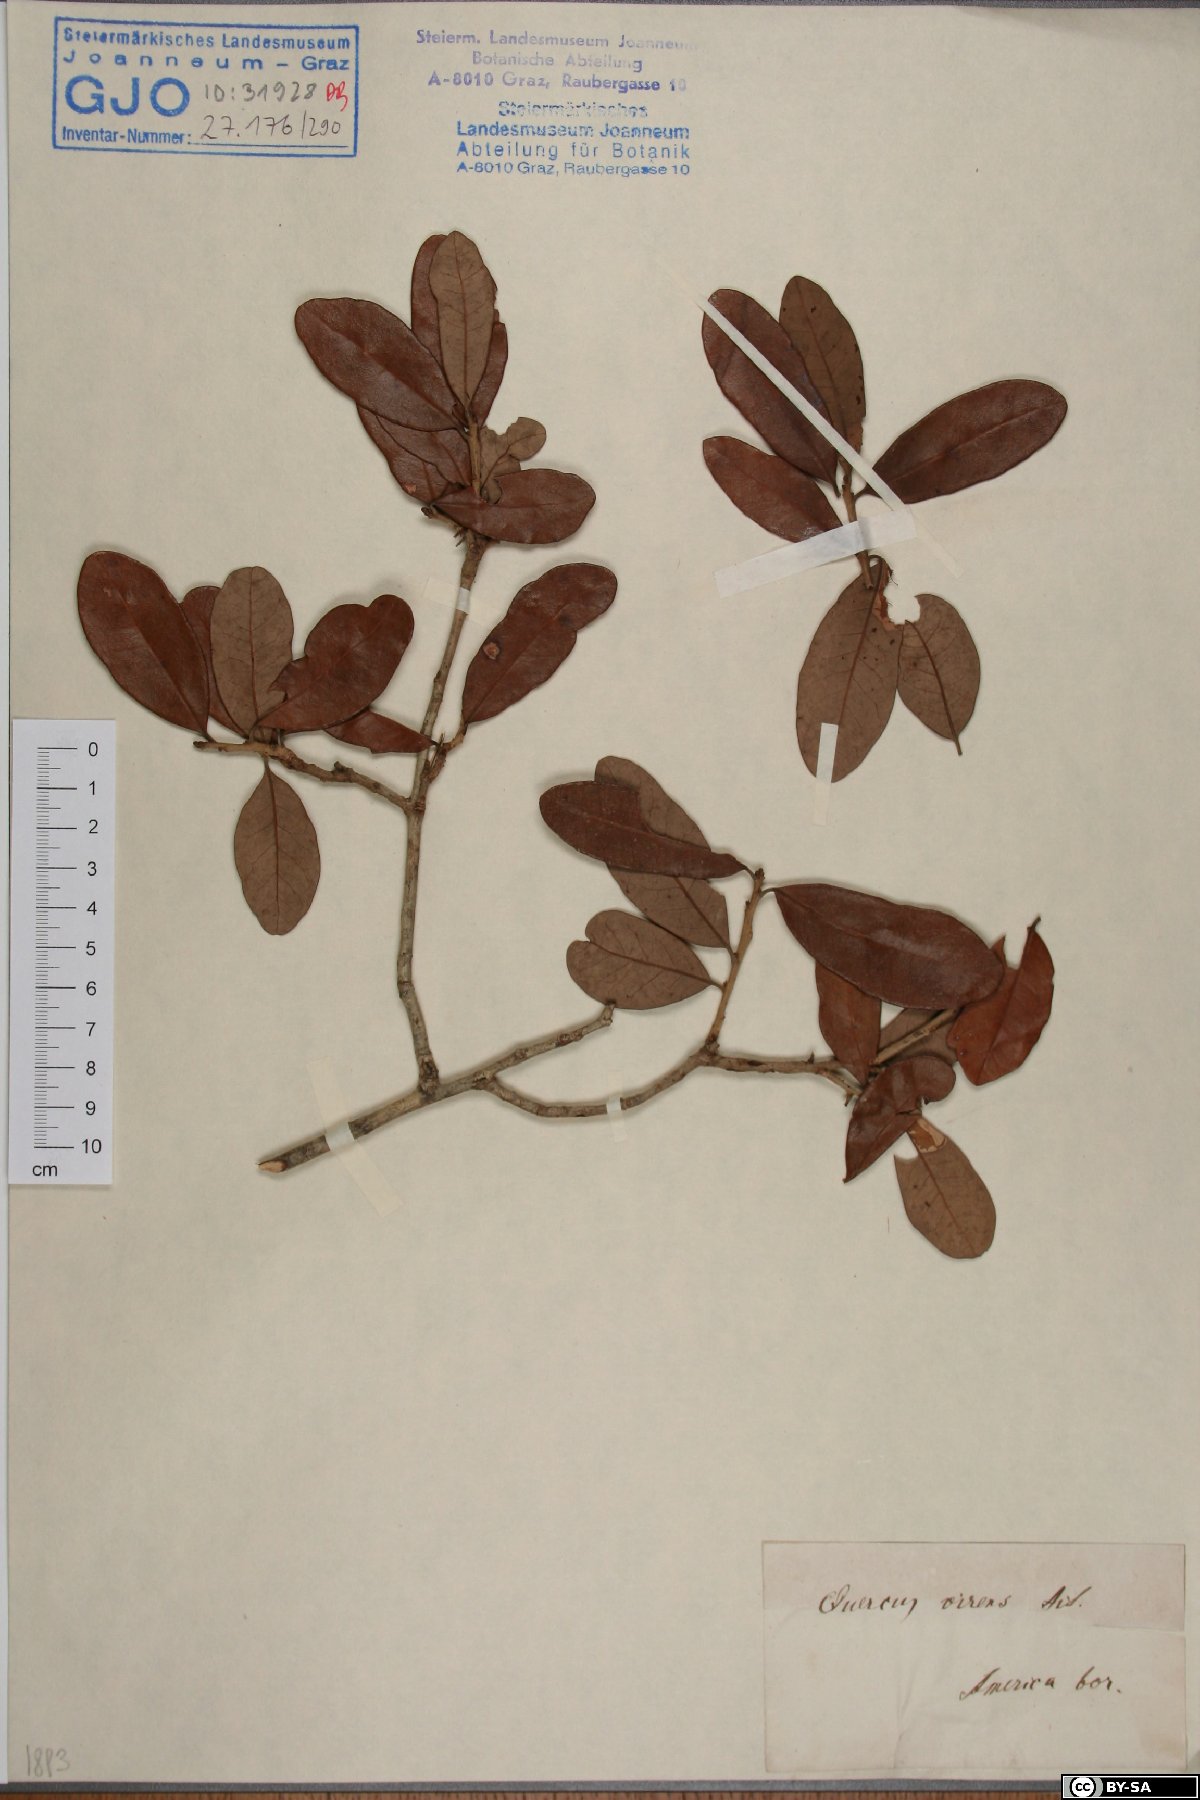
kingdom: Plantae
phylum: Tracheophyta
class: Magnoliopsida
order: Fagales
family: Fagaceae
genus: Quercus
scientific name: Quercus virginiana
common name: Southern live oak
